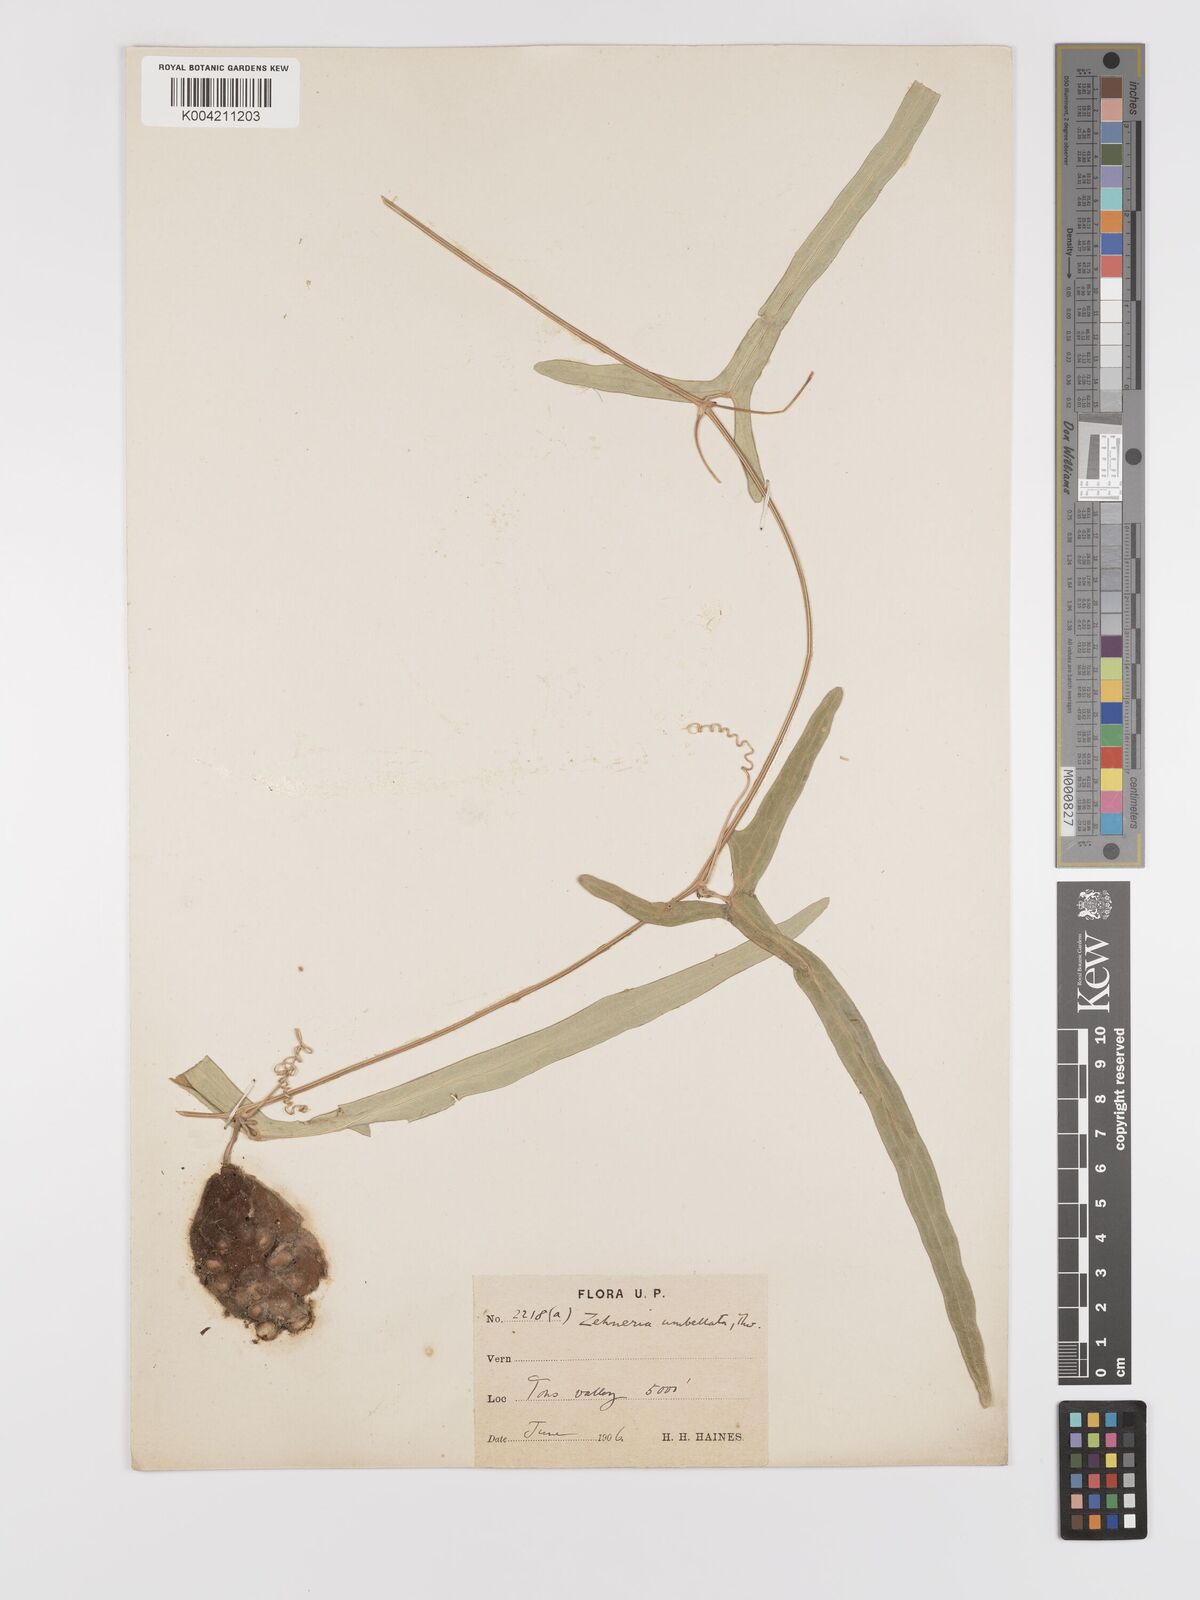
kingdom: Plantae
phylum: Tracheophyta
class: Magnoliopsida
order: Cucurbitales
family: Cucurbitaceae
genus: Solena
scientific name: Solena amplexicaulis
